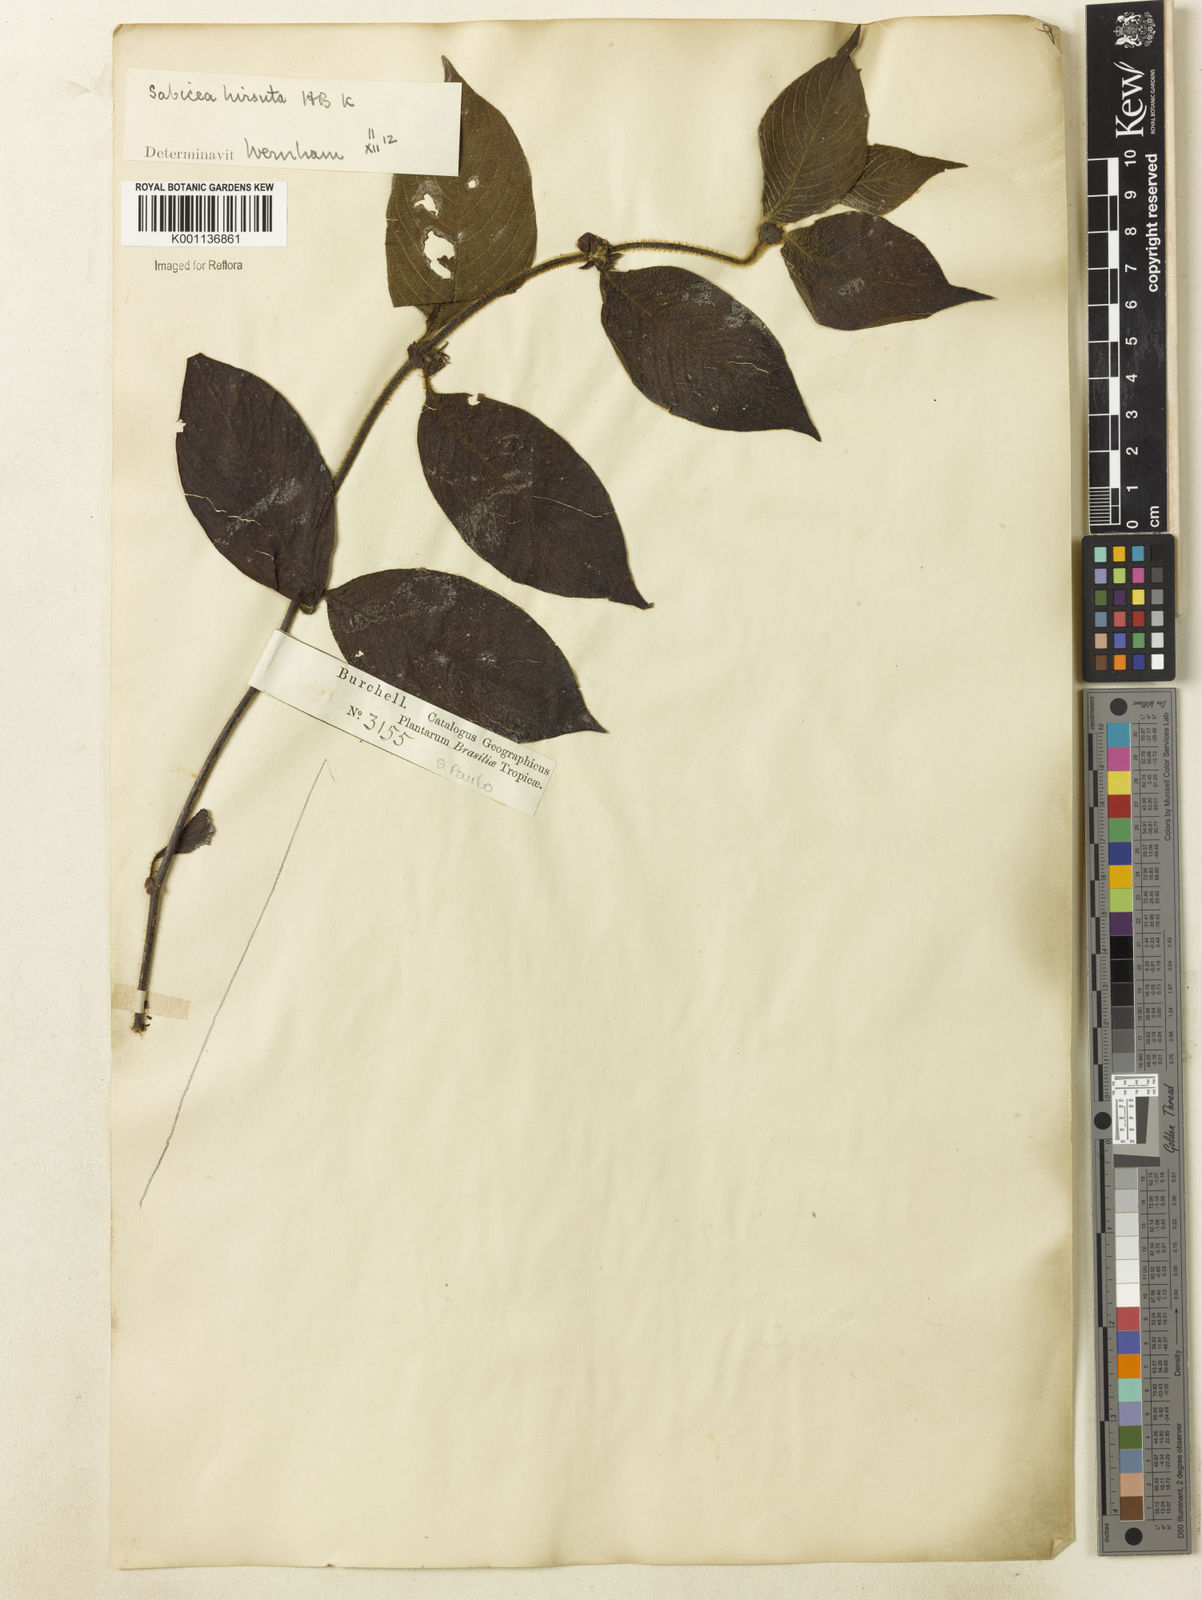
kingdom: Plantae
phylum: Tracheophyta
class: Magnoliopsida
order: Gentianales
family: Rubiaceae
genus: Sabicea
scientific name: Sabicea grisea
